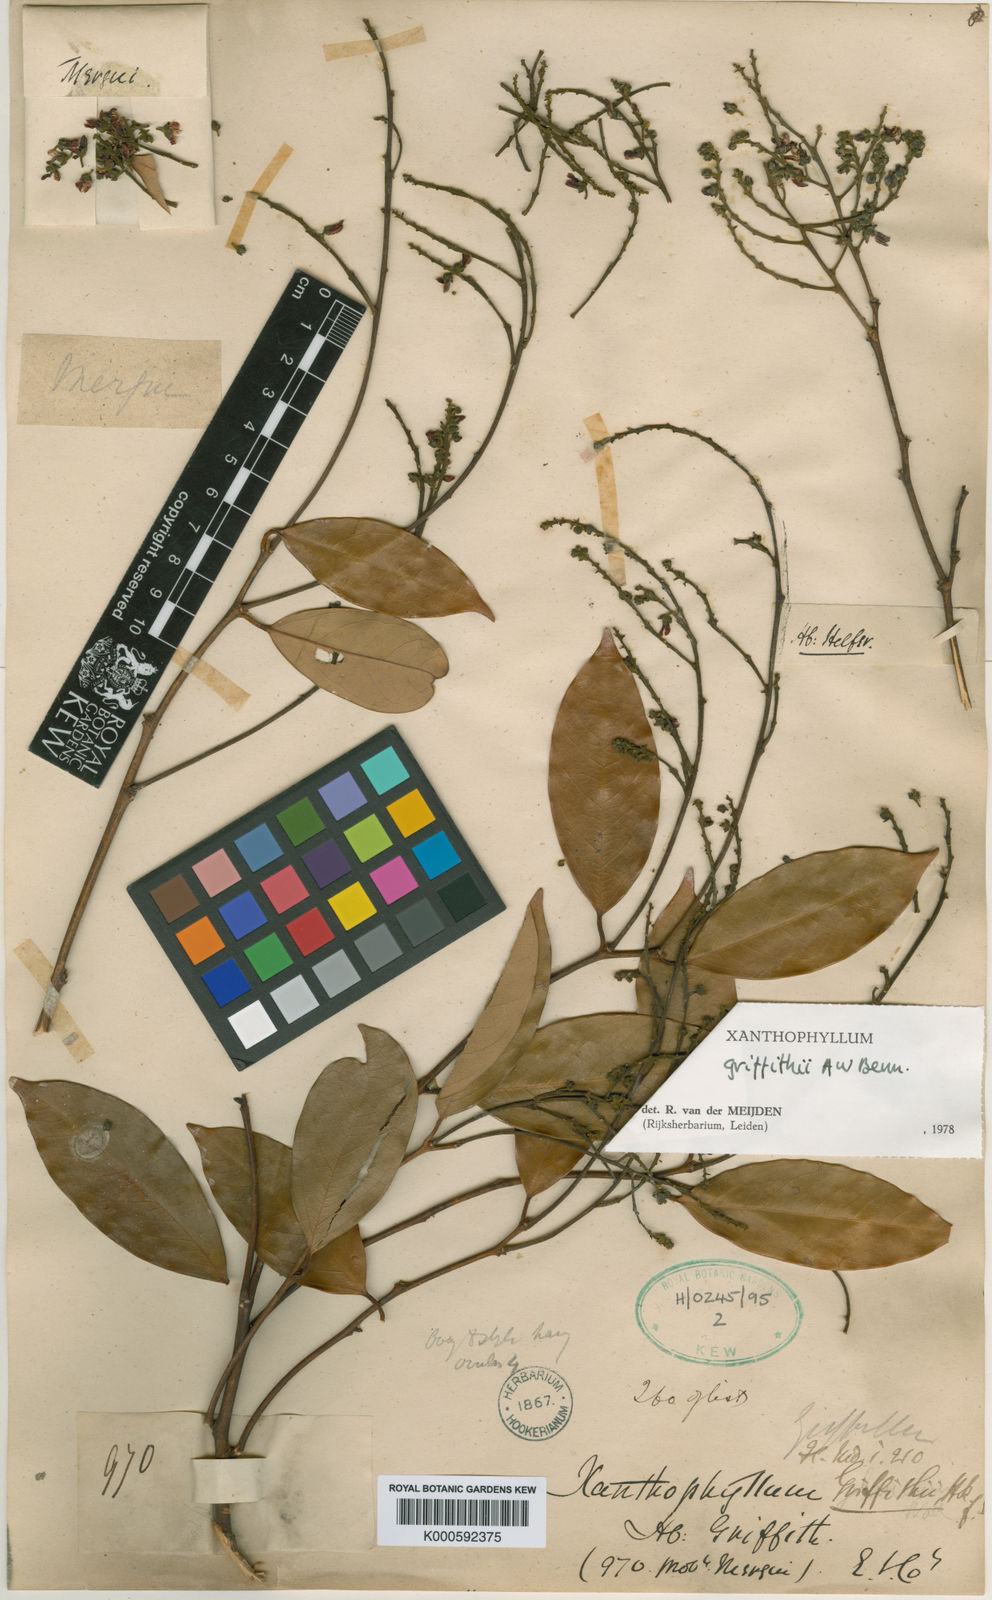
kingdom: Plantae
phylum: Tracheophyta
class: Magnoliopsida
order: Fabales
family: Polygalaceae
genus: Xanthophyllum
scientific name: Xanthophyllum griffithii
